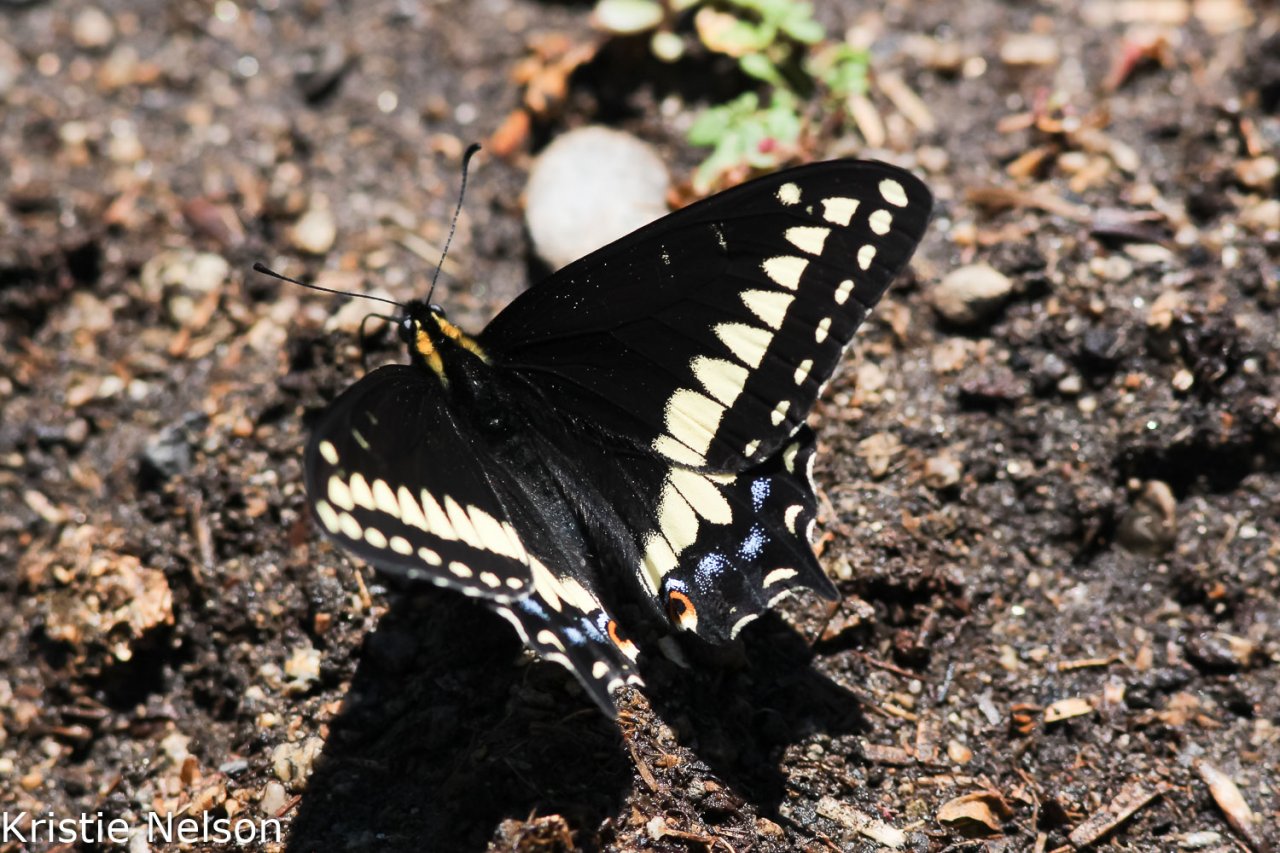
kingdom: Animalia
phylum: Arthropoda
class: Insecta
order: Lepidoptera
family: Papilionidae
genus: Papilio
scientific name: Papilio indra
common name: Indra Swallowtail
